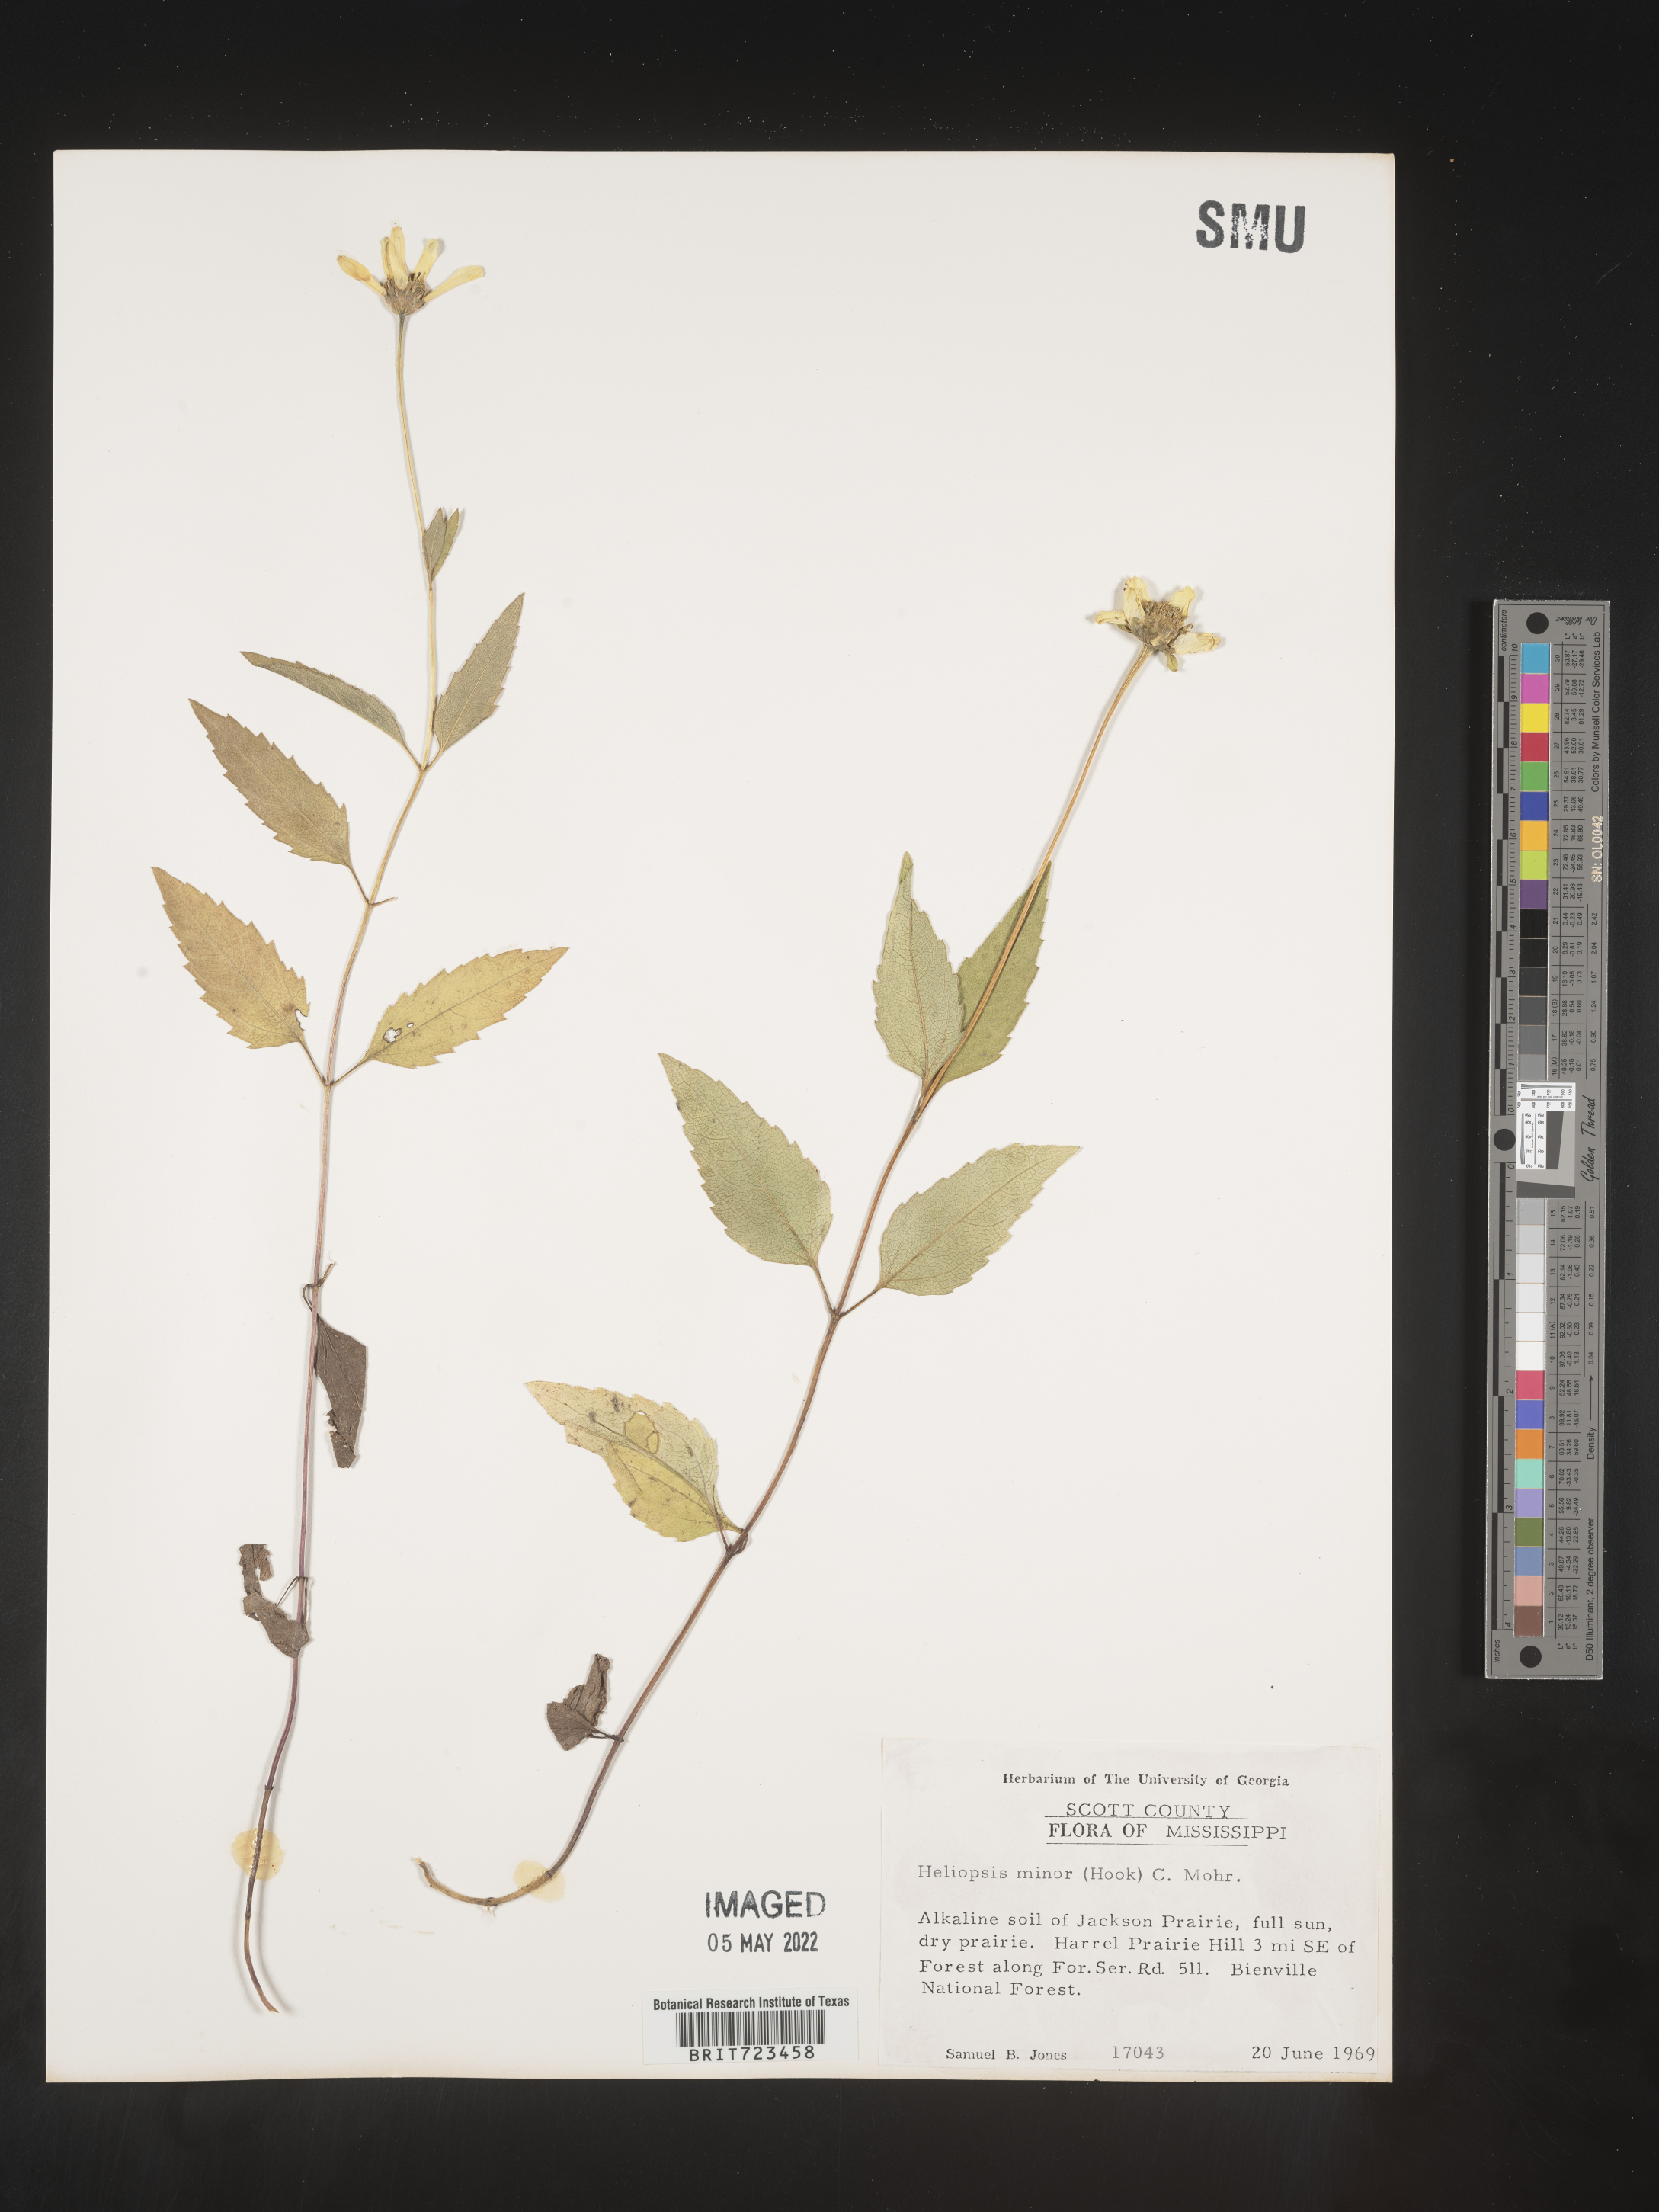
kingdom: Plantae
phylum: Tracheophyta
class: Magnoliopsida
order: Asterales
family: Asteraceae
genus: Heliopsis
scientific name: Heliopsis helianthoides
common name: False sunflower
